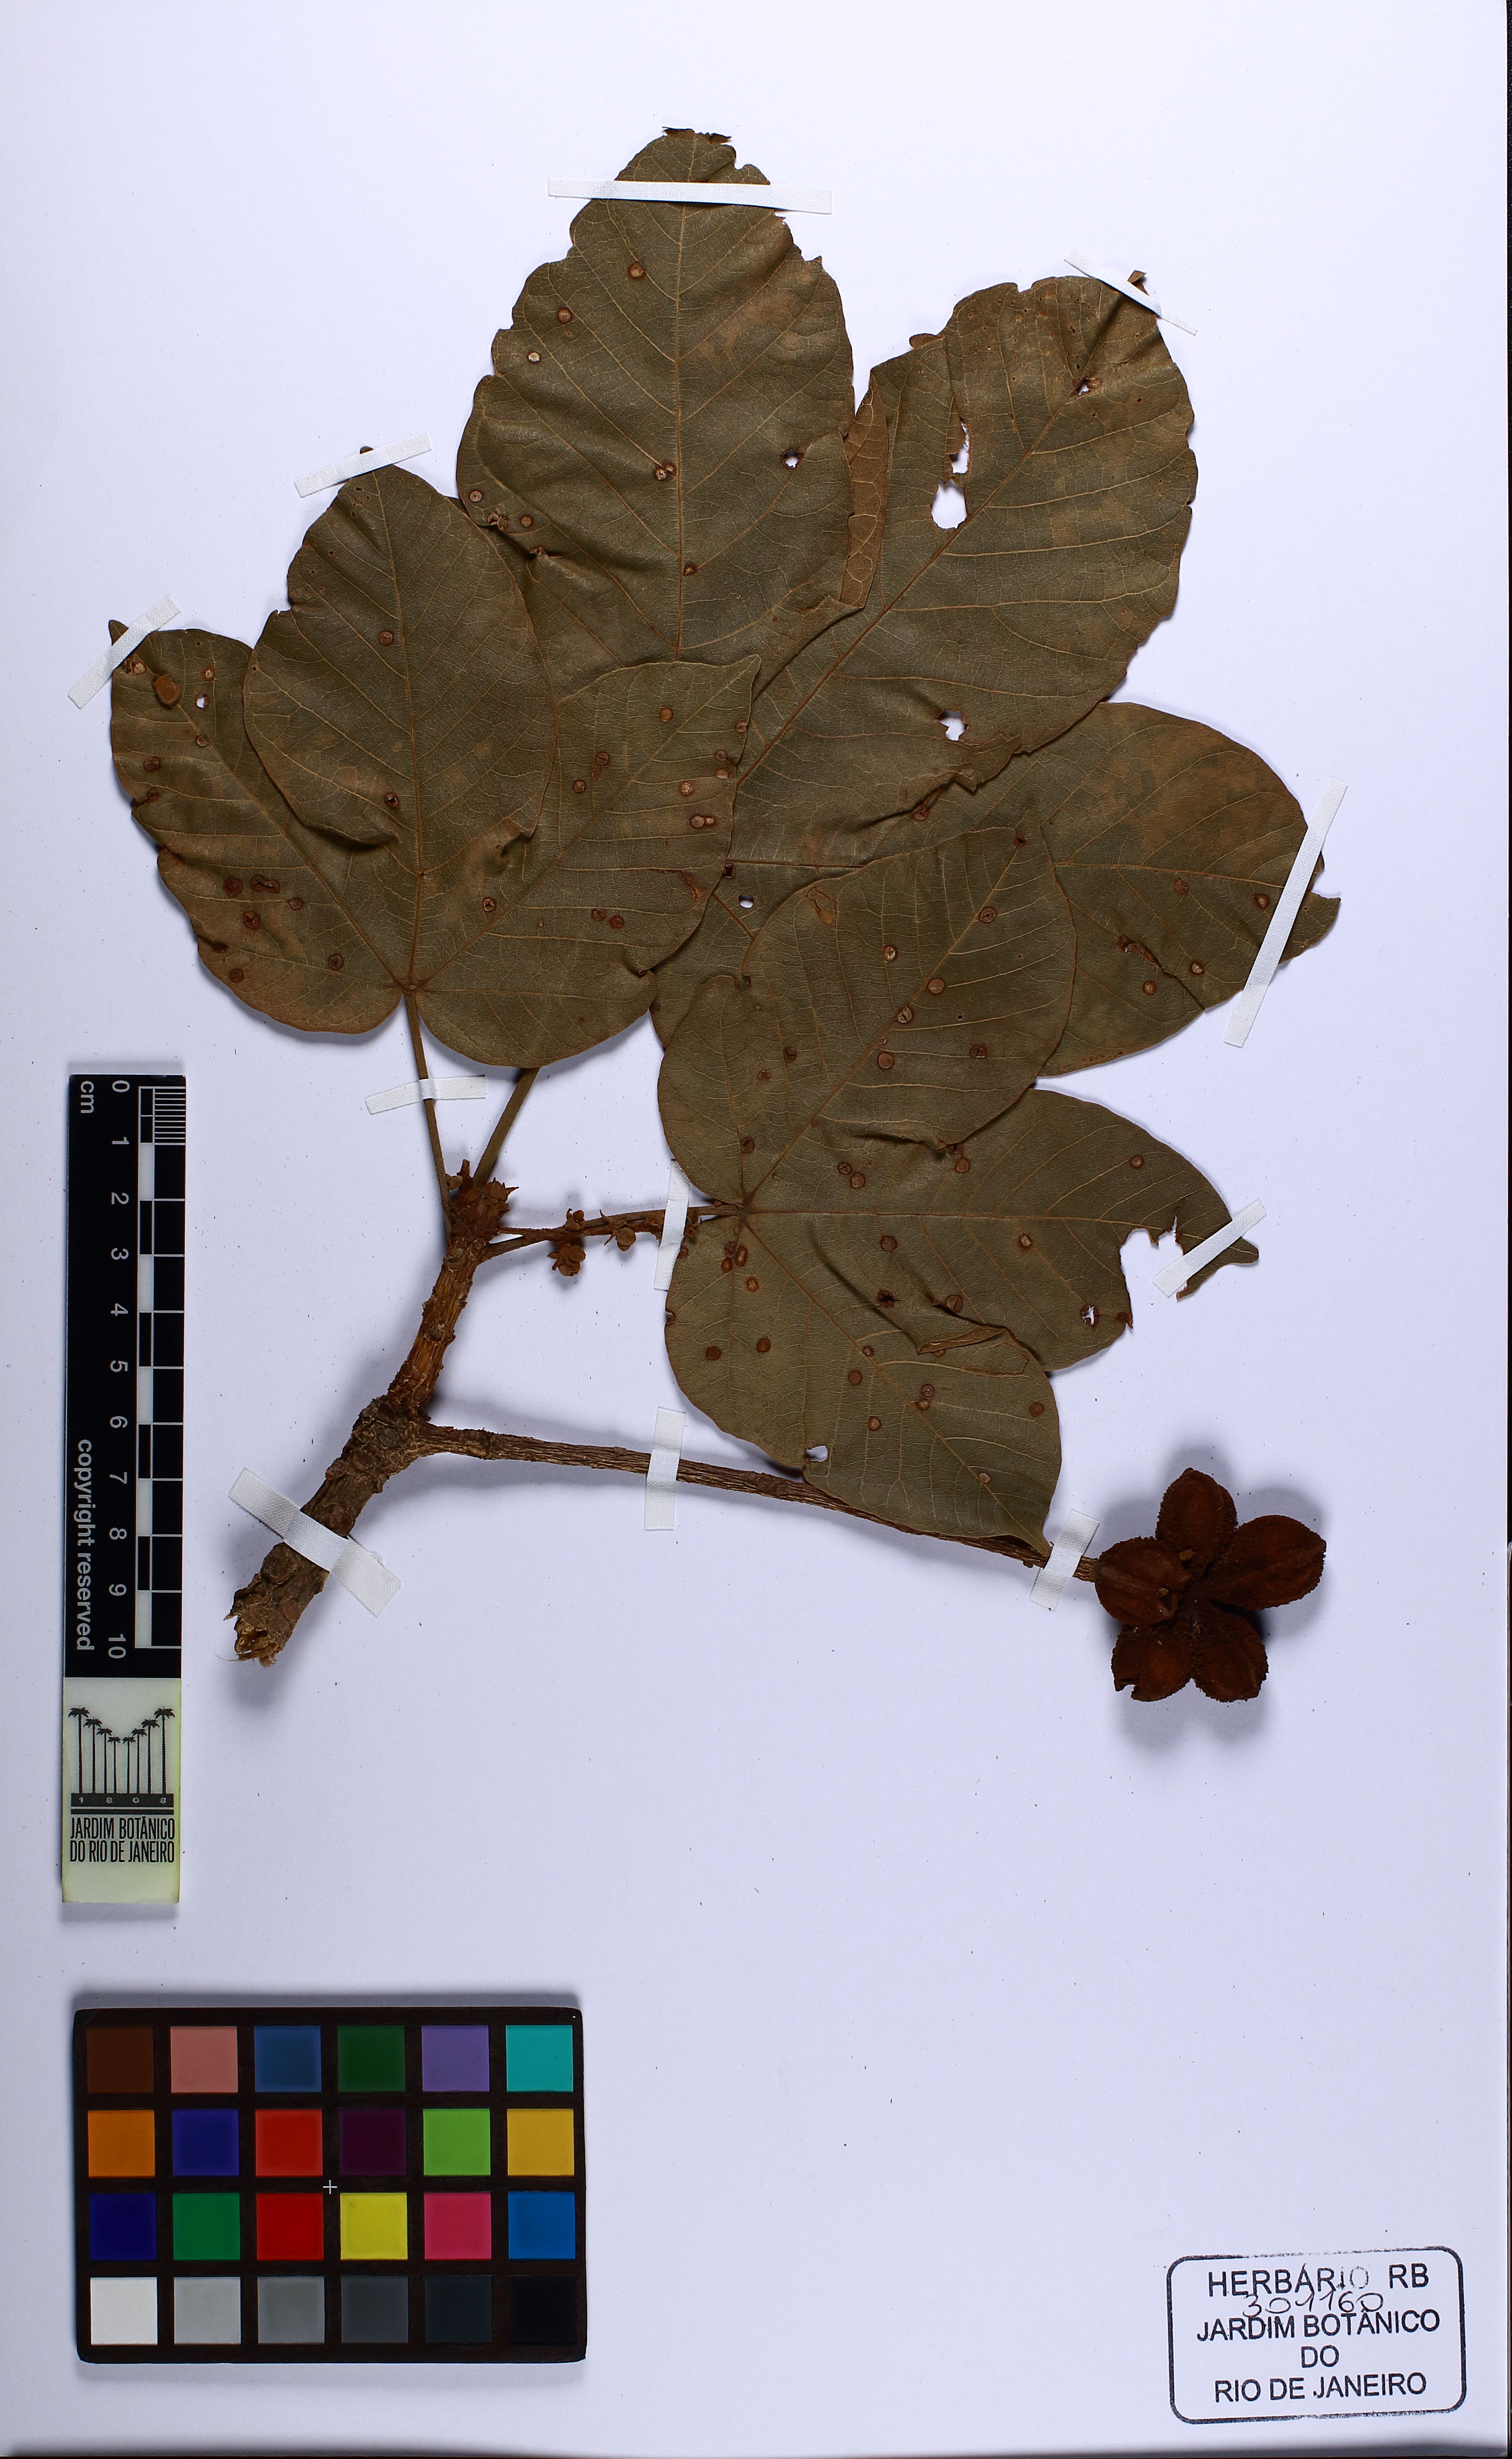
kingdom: Plantae
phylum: Tracheophyta
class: Magnoliopsida
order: Malvales
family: Malvaceae
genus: Sterculia
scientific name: Sterculia apetala
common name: Panama tree
